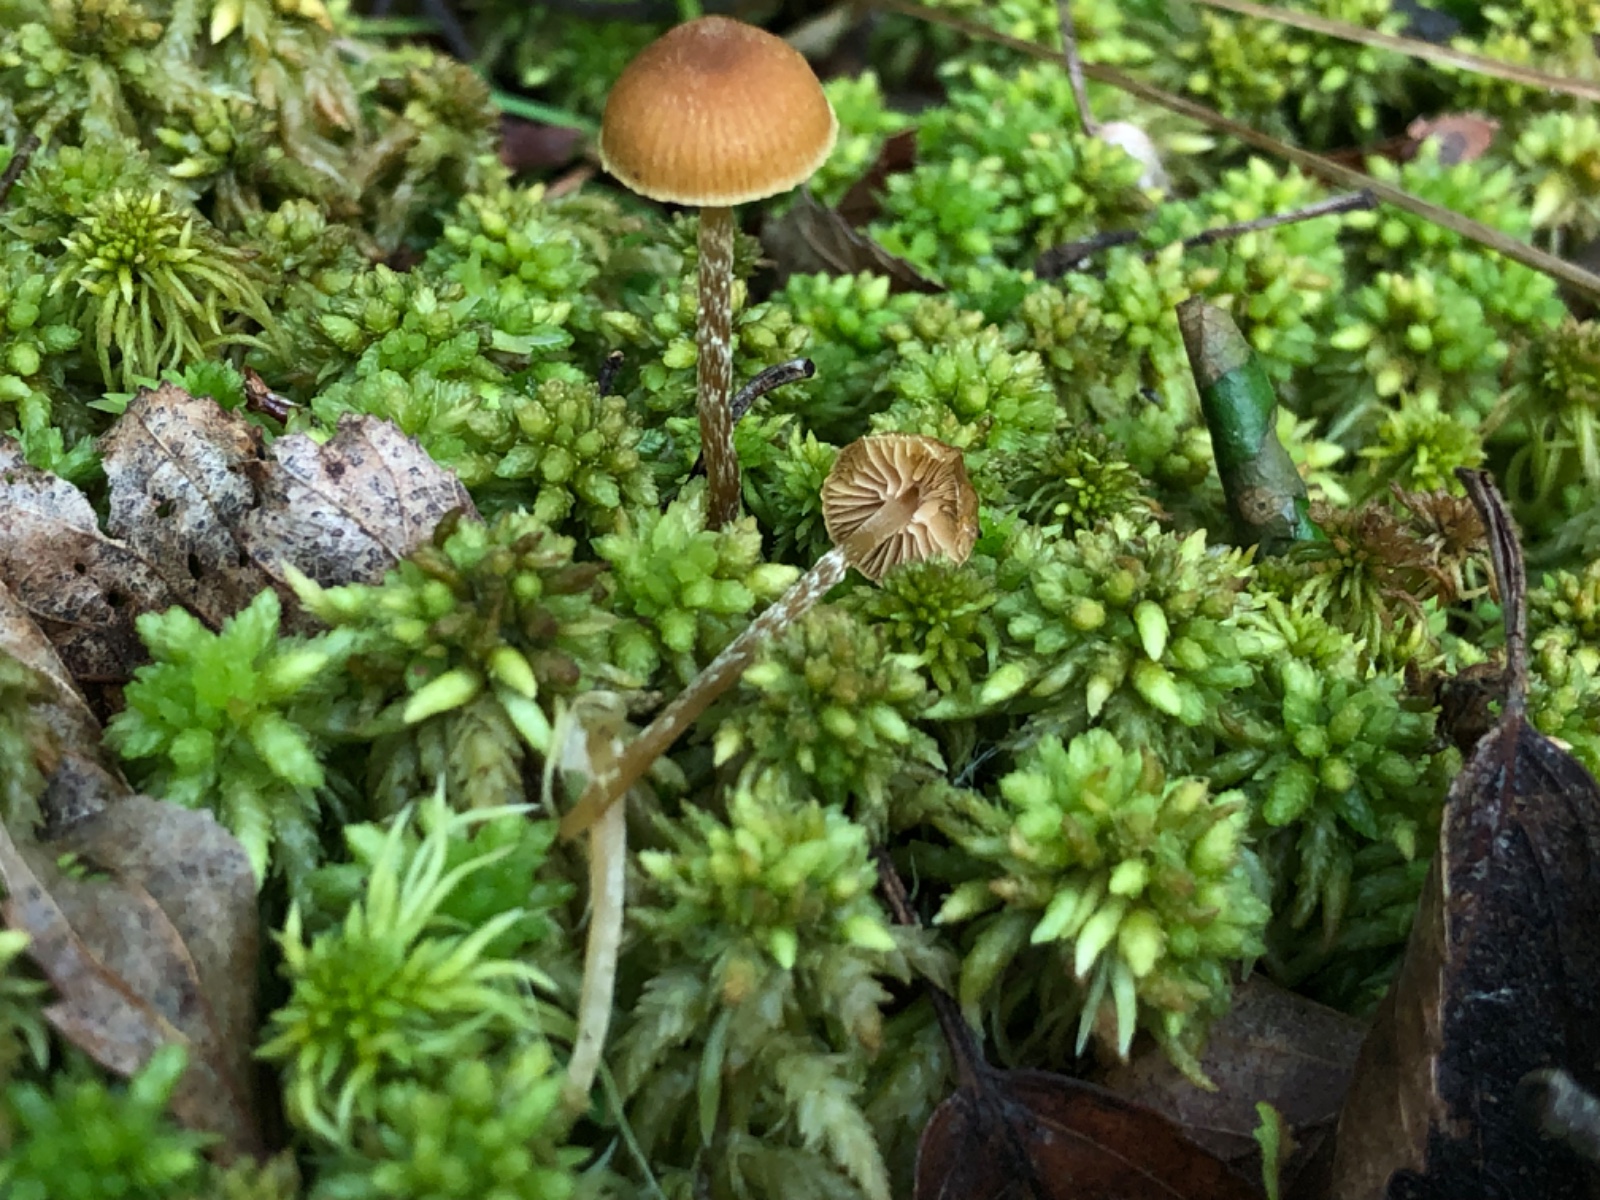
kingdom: Fungi
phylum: Basidiomycota
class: Agaricomycetes
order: Agaricales
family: Hymenogastraceae
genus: Galerina
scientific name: Galerina paludosa
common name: mose-hjelmhat
